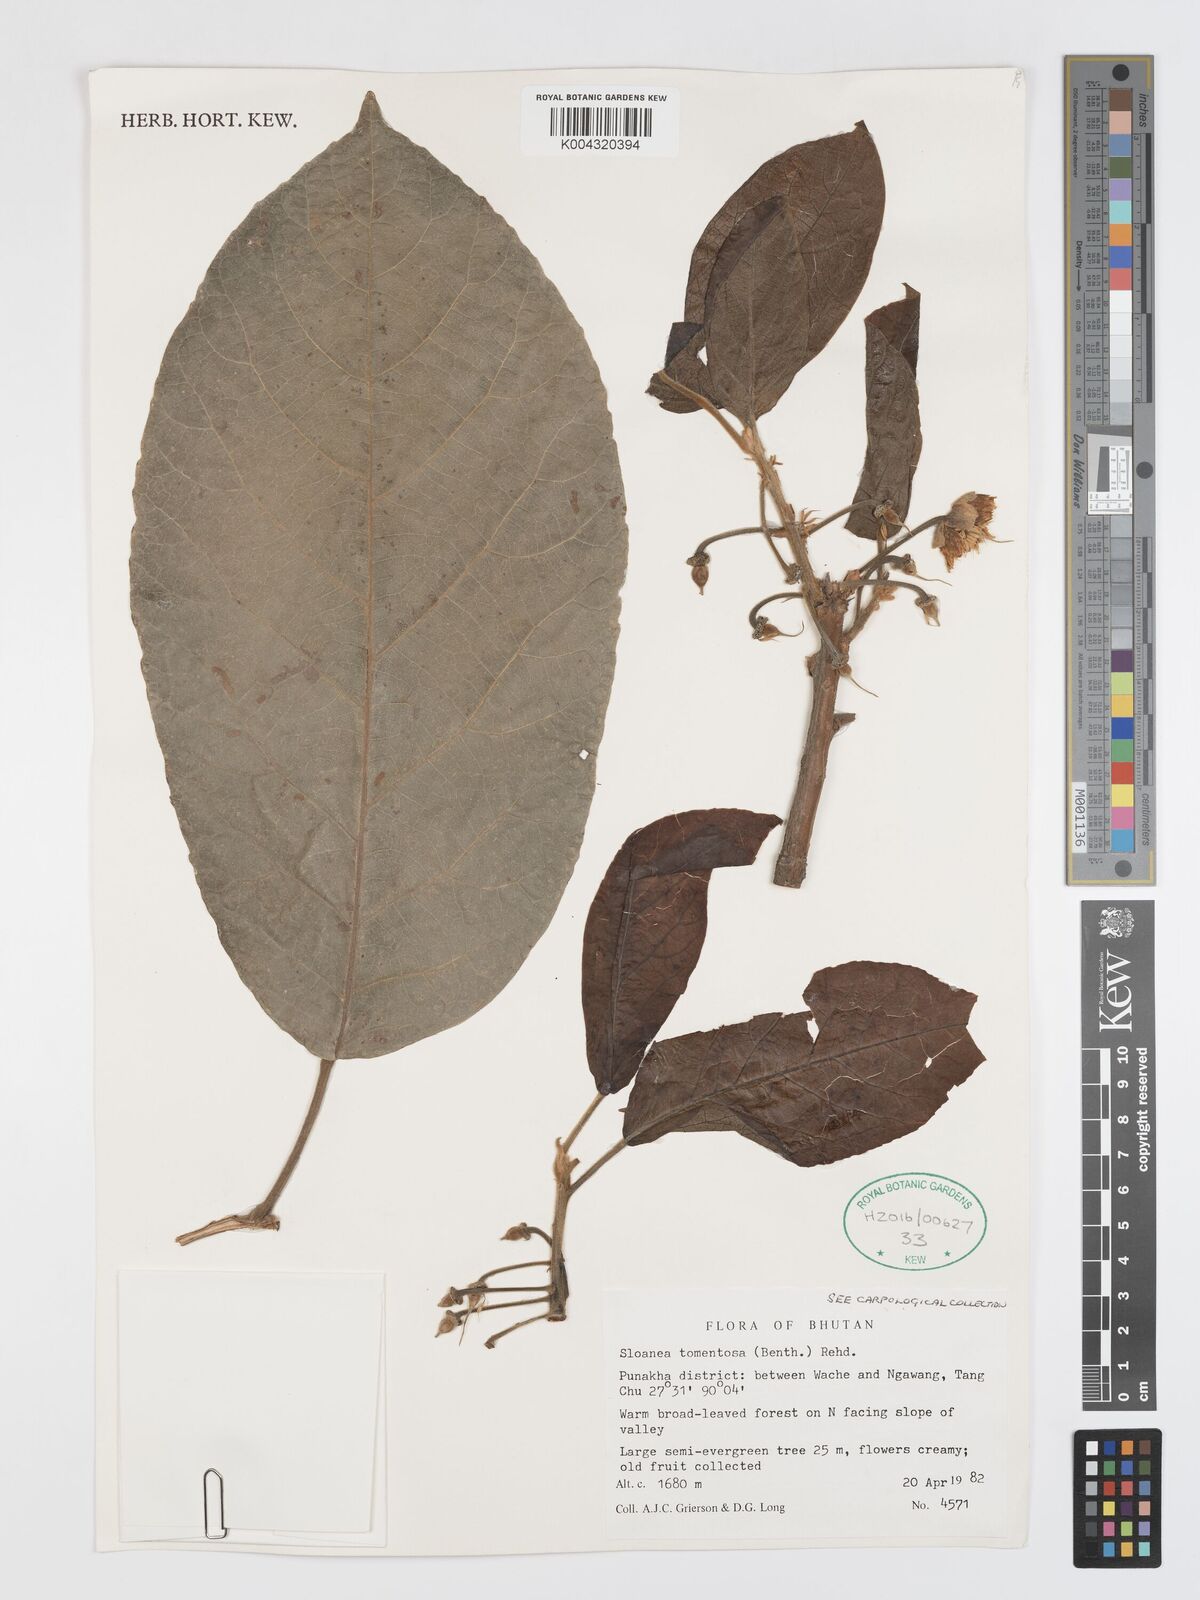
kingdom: Plantae
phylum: Tracheophyta
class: Magnoliopsida
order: Oxalidales
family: Elaeocarpaceae
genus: Sloanea
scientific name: Sloanea tomentosa
